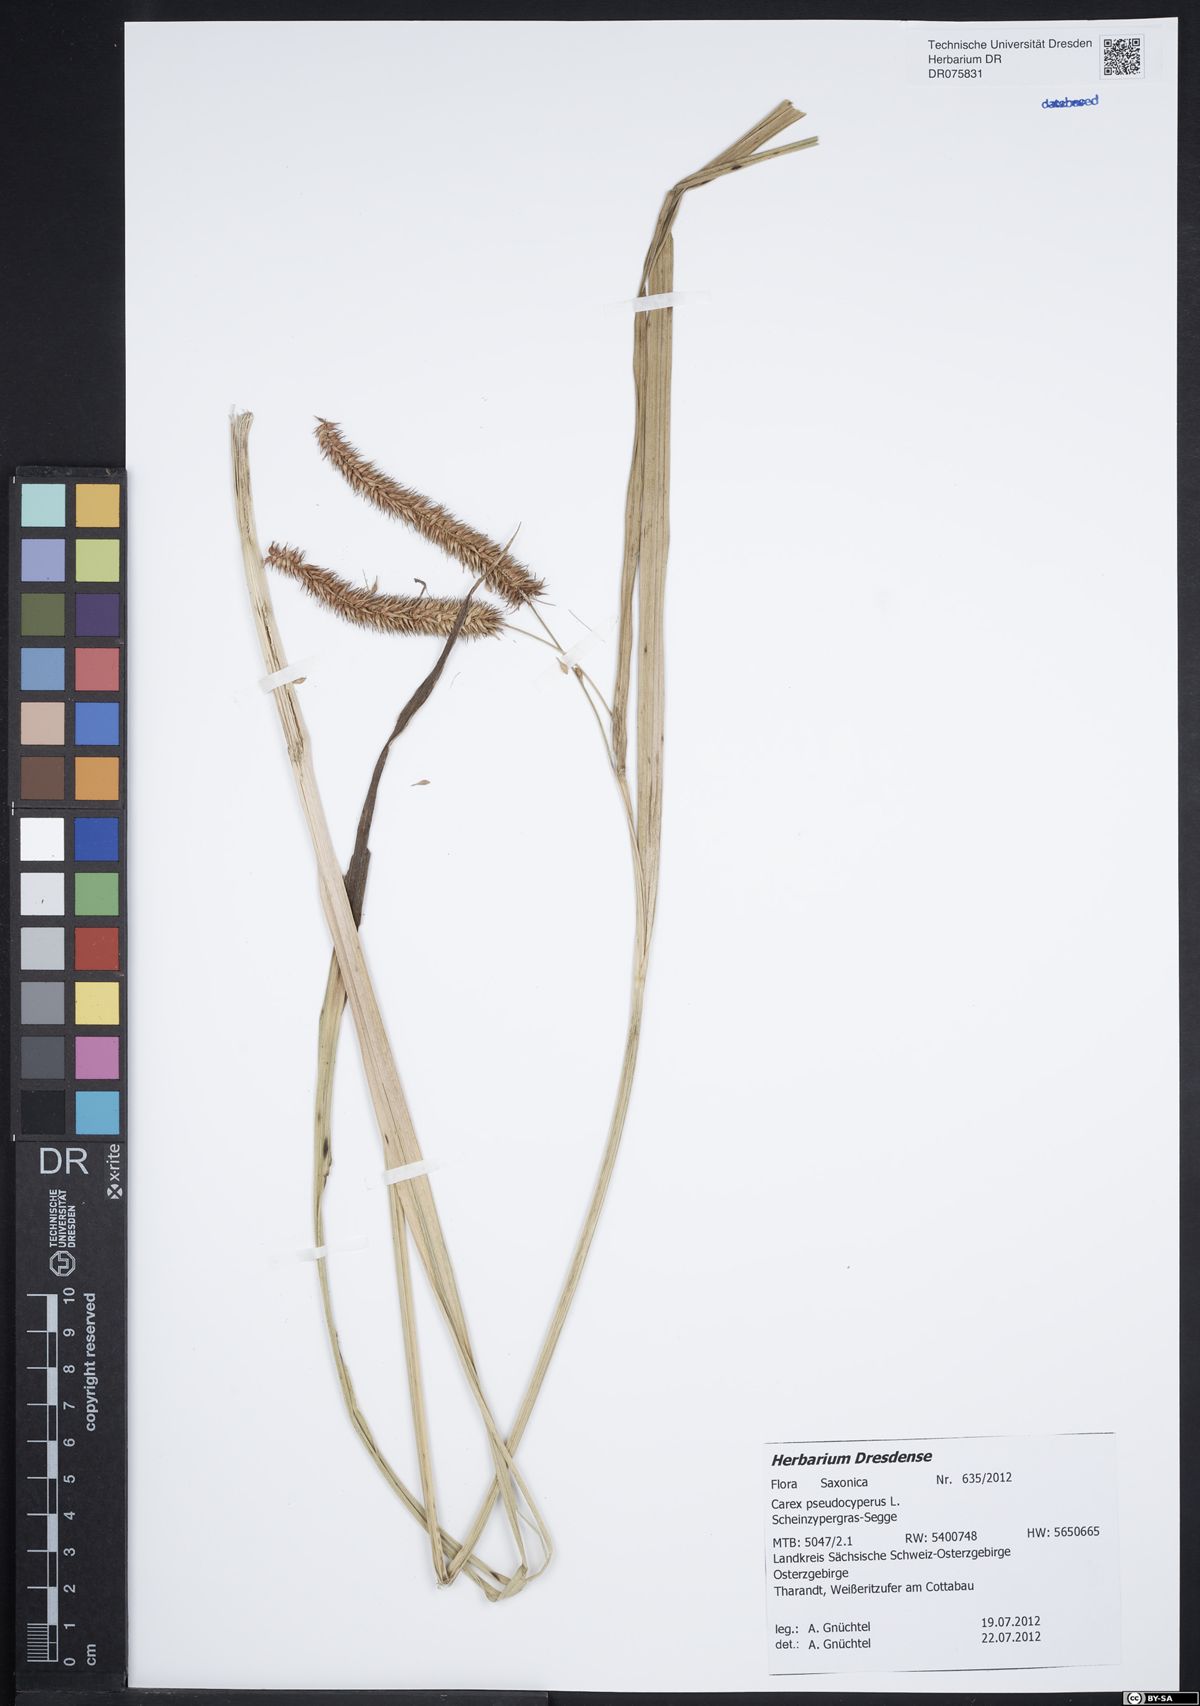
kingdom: Plantae
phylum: Tracheophyta
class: Liliopsida
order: Poales
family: Cyperaceae
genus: Carex
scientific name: Carex pseudocyperus
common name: Cyperus sedge
